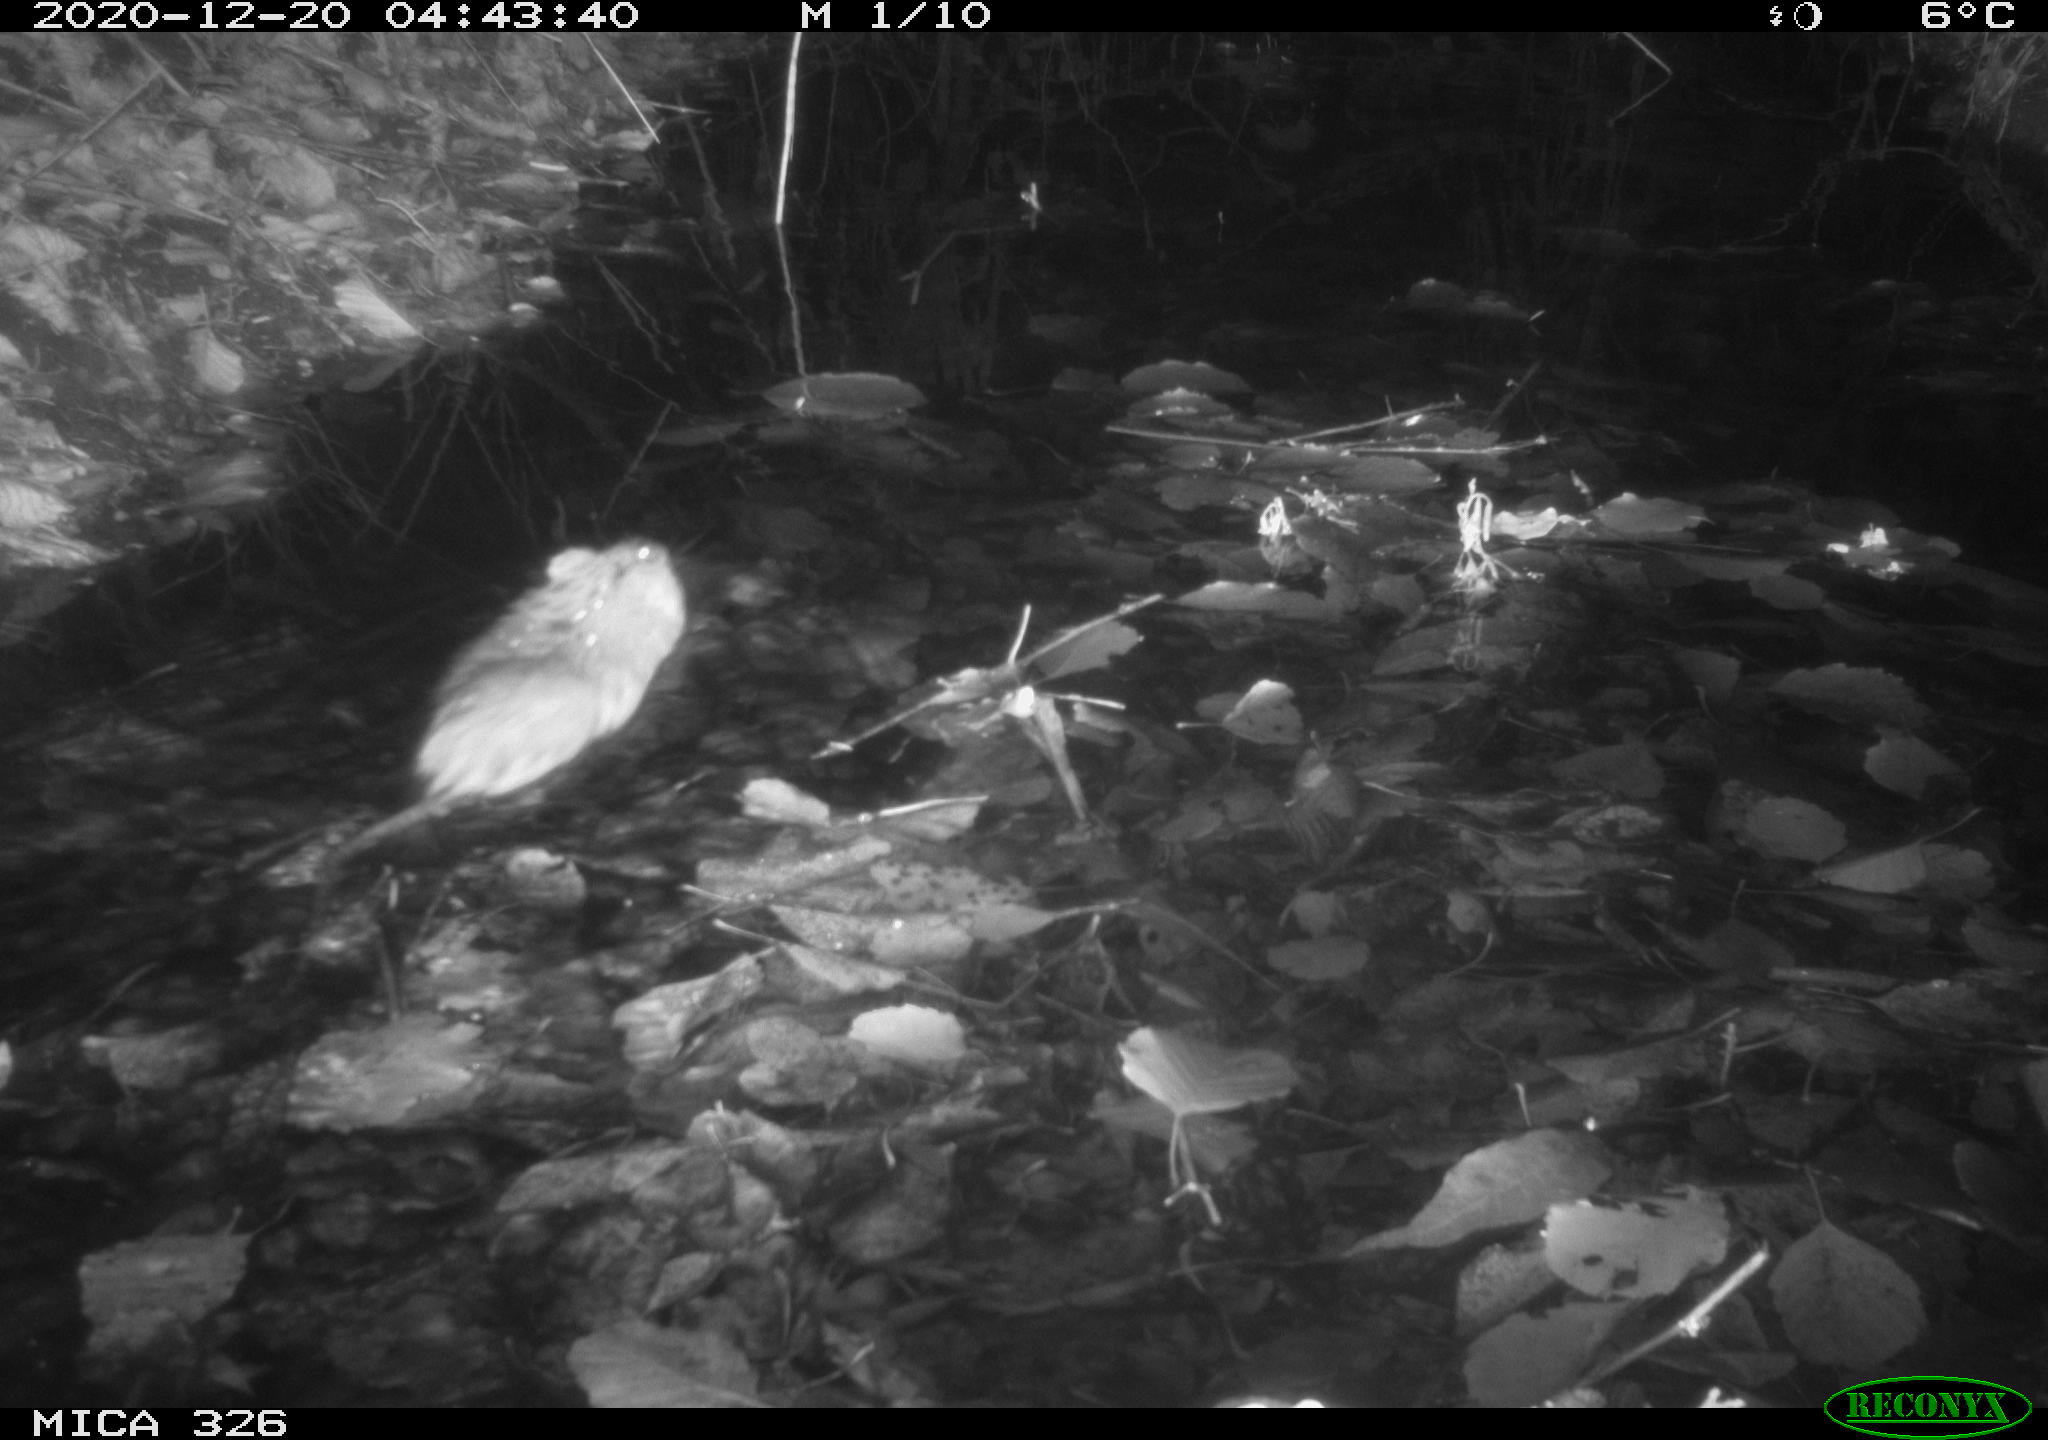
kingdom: Animalia
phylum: Chordata
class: Mammalia
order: Rodentia
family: Cricetidae
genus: Ondatra
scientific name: Ondatra zibethicus
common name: Muskrat
